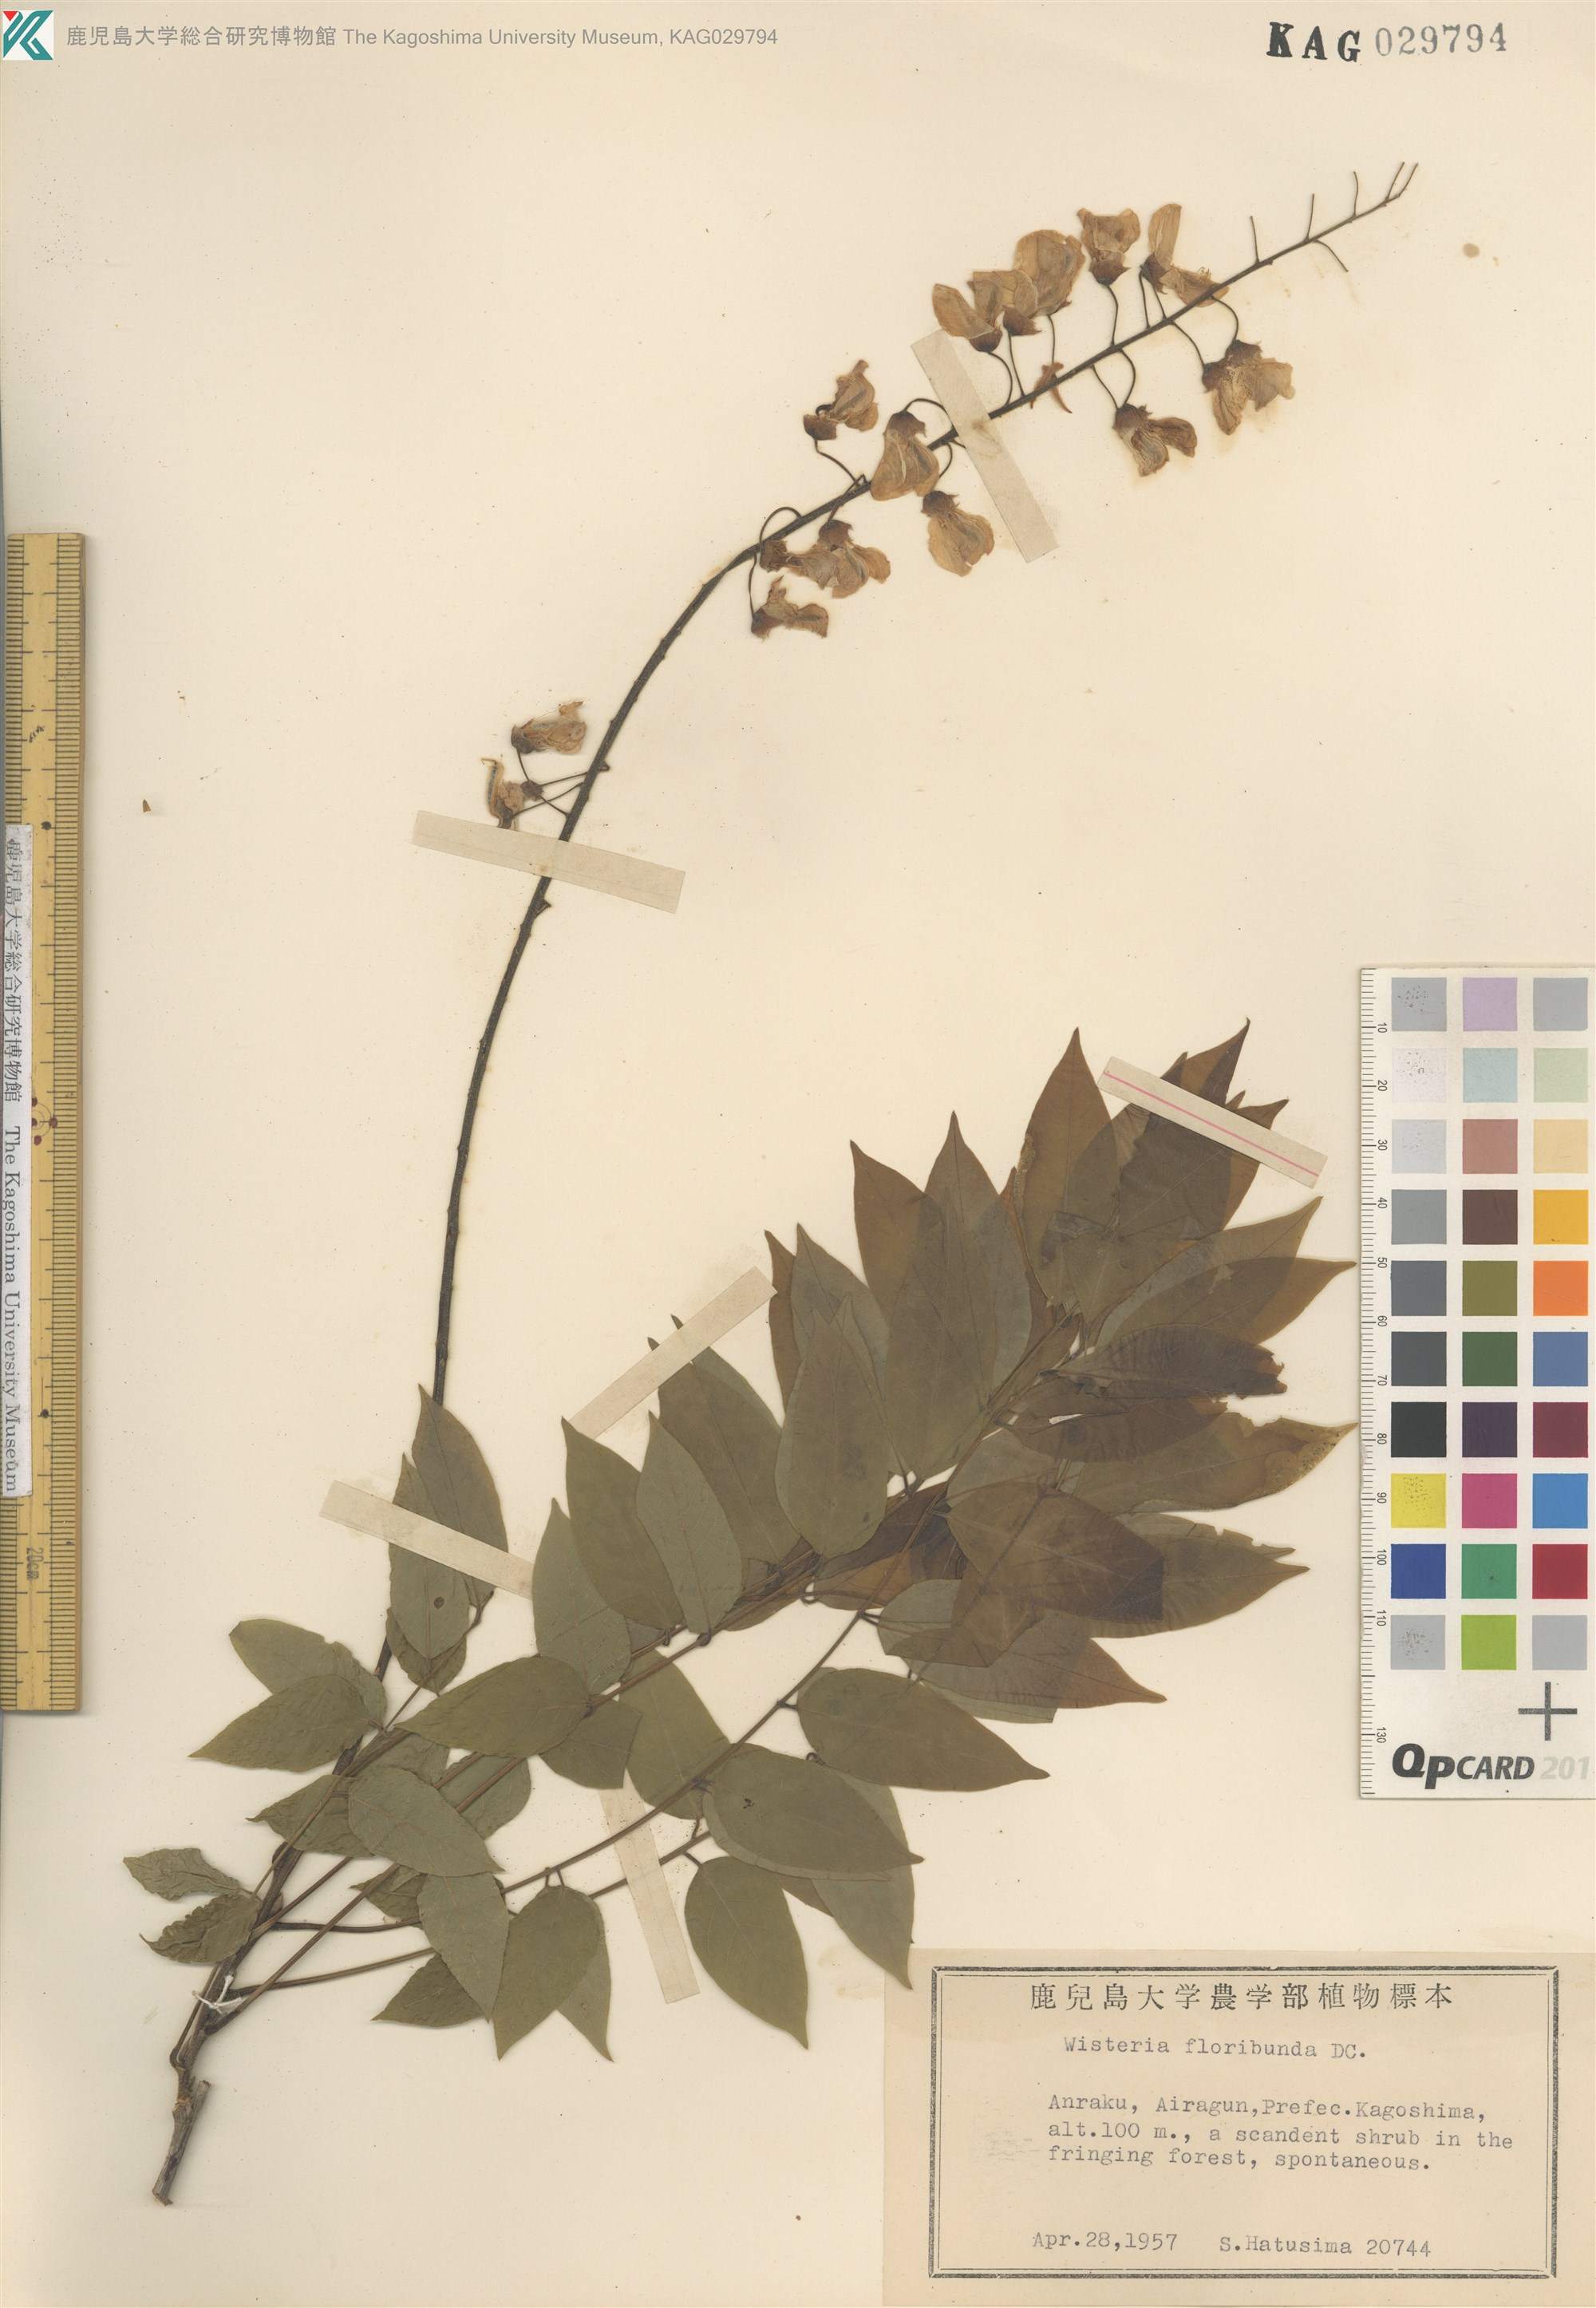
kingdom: Plantae
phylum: Tracheophyta
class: Magnoliopsida
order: Fabales
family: Fabaceae
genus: Wisteria
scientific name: Wisteria floribunda
